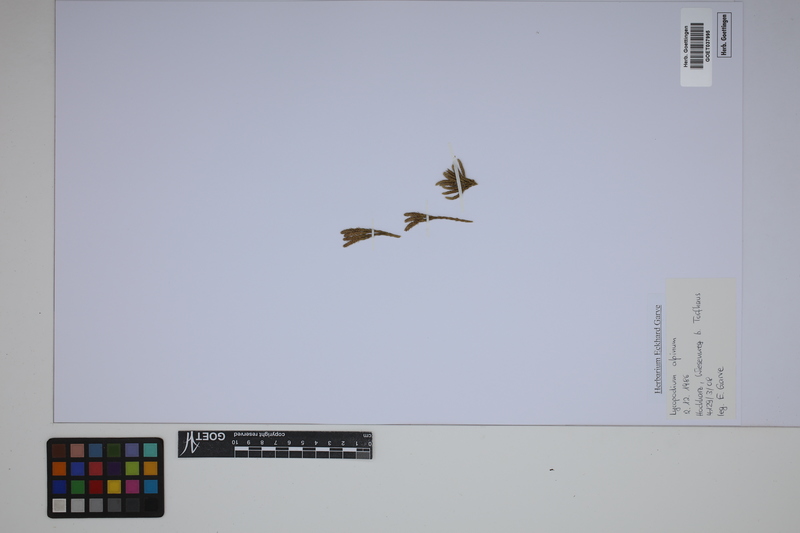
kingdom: Plantae
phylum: Tracheophyta
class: Lycopodiopsida
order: Lycopodiales
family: Lycopodiaceae
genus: Diphasiastrum
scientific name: Diphasiastrum alpinum
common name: Alpine clubmoss
